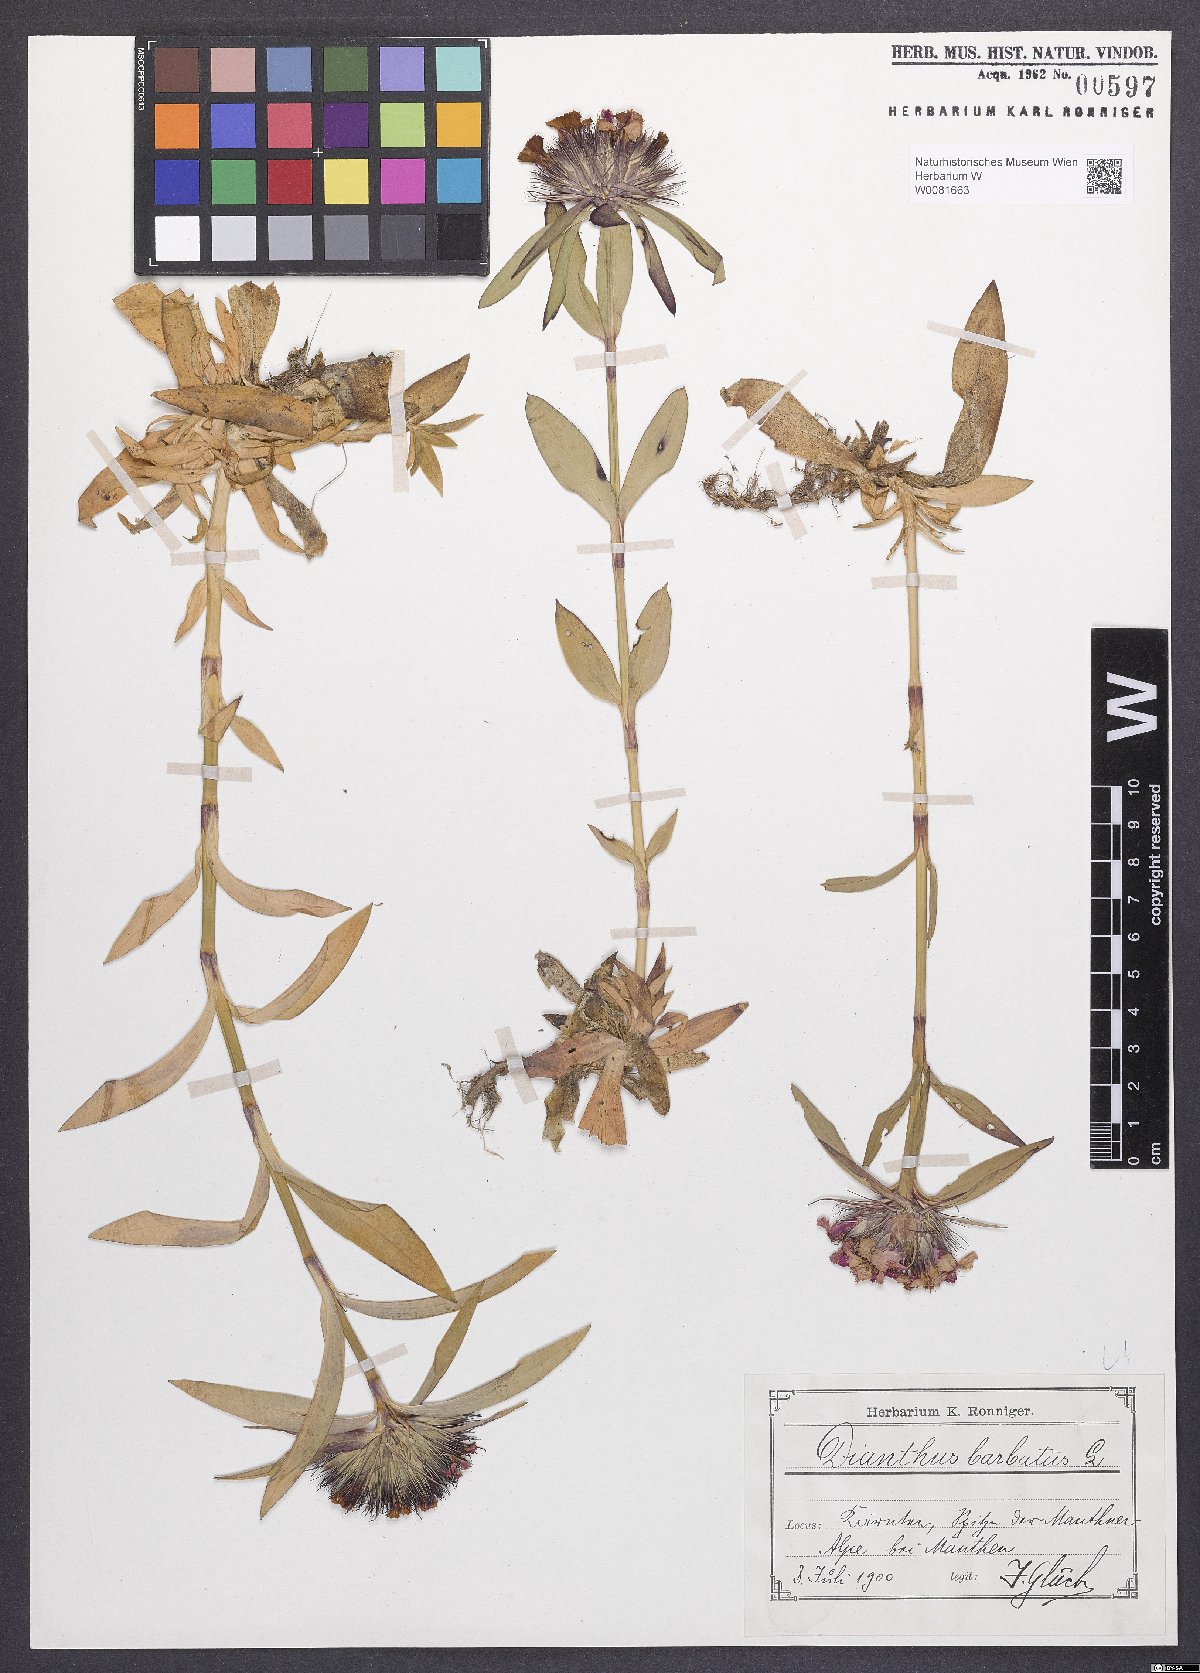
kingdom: Plantae
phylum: Tracheophyta
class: Magnoliopsida
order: Caryophyllales
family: Caryophyllaceae
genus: Dianthus
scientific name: Dianthus barbatus
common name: Sweet-william
